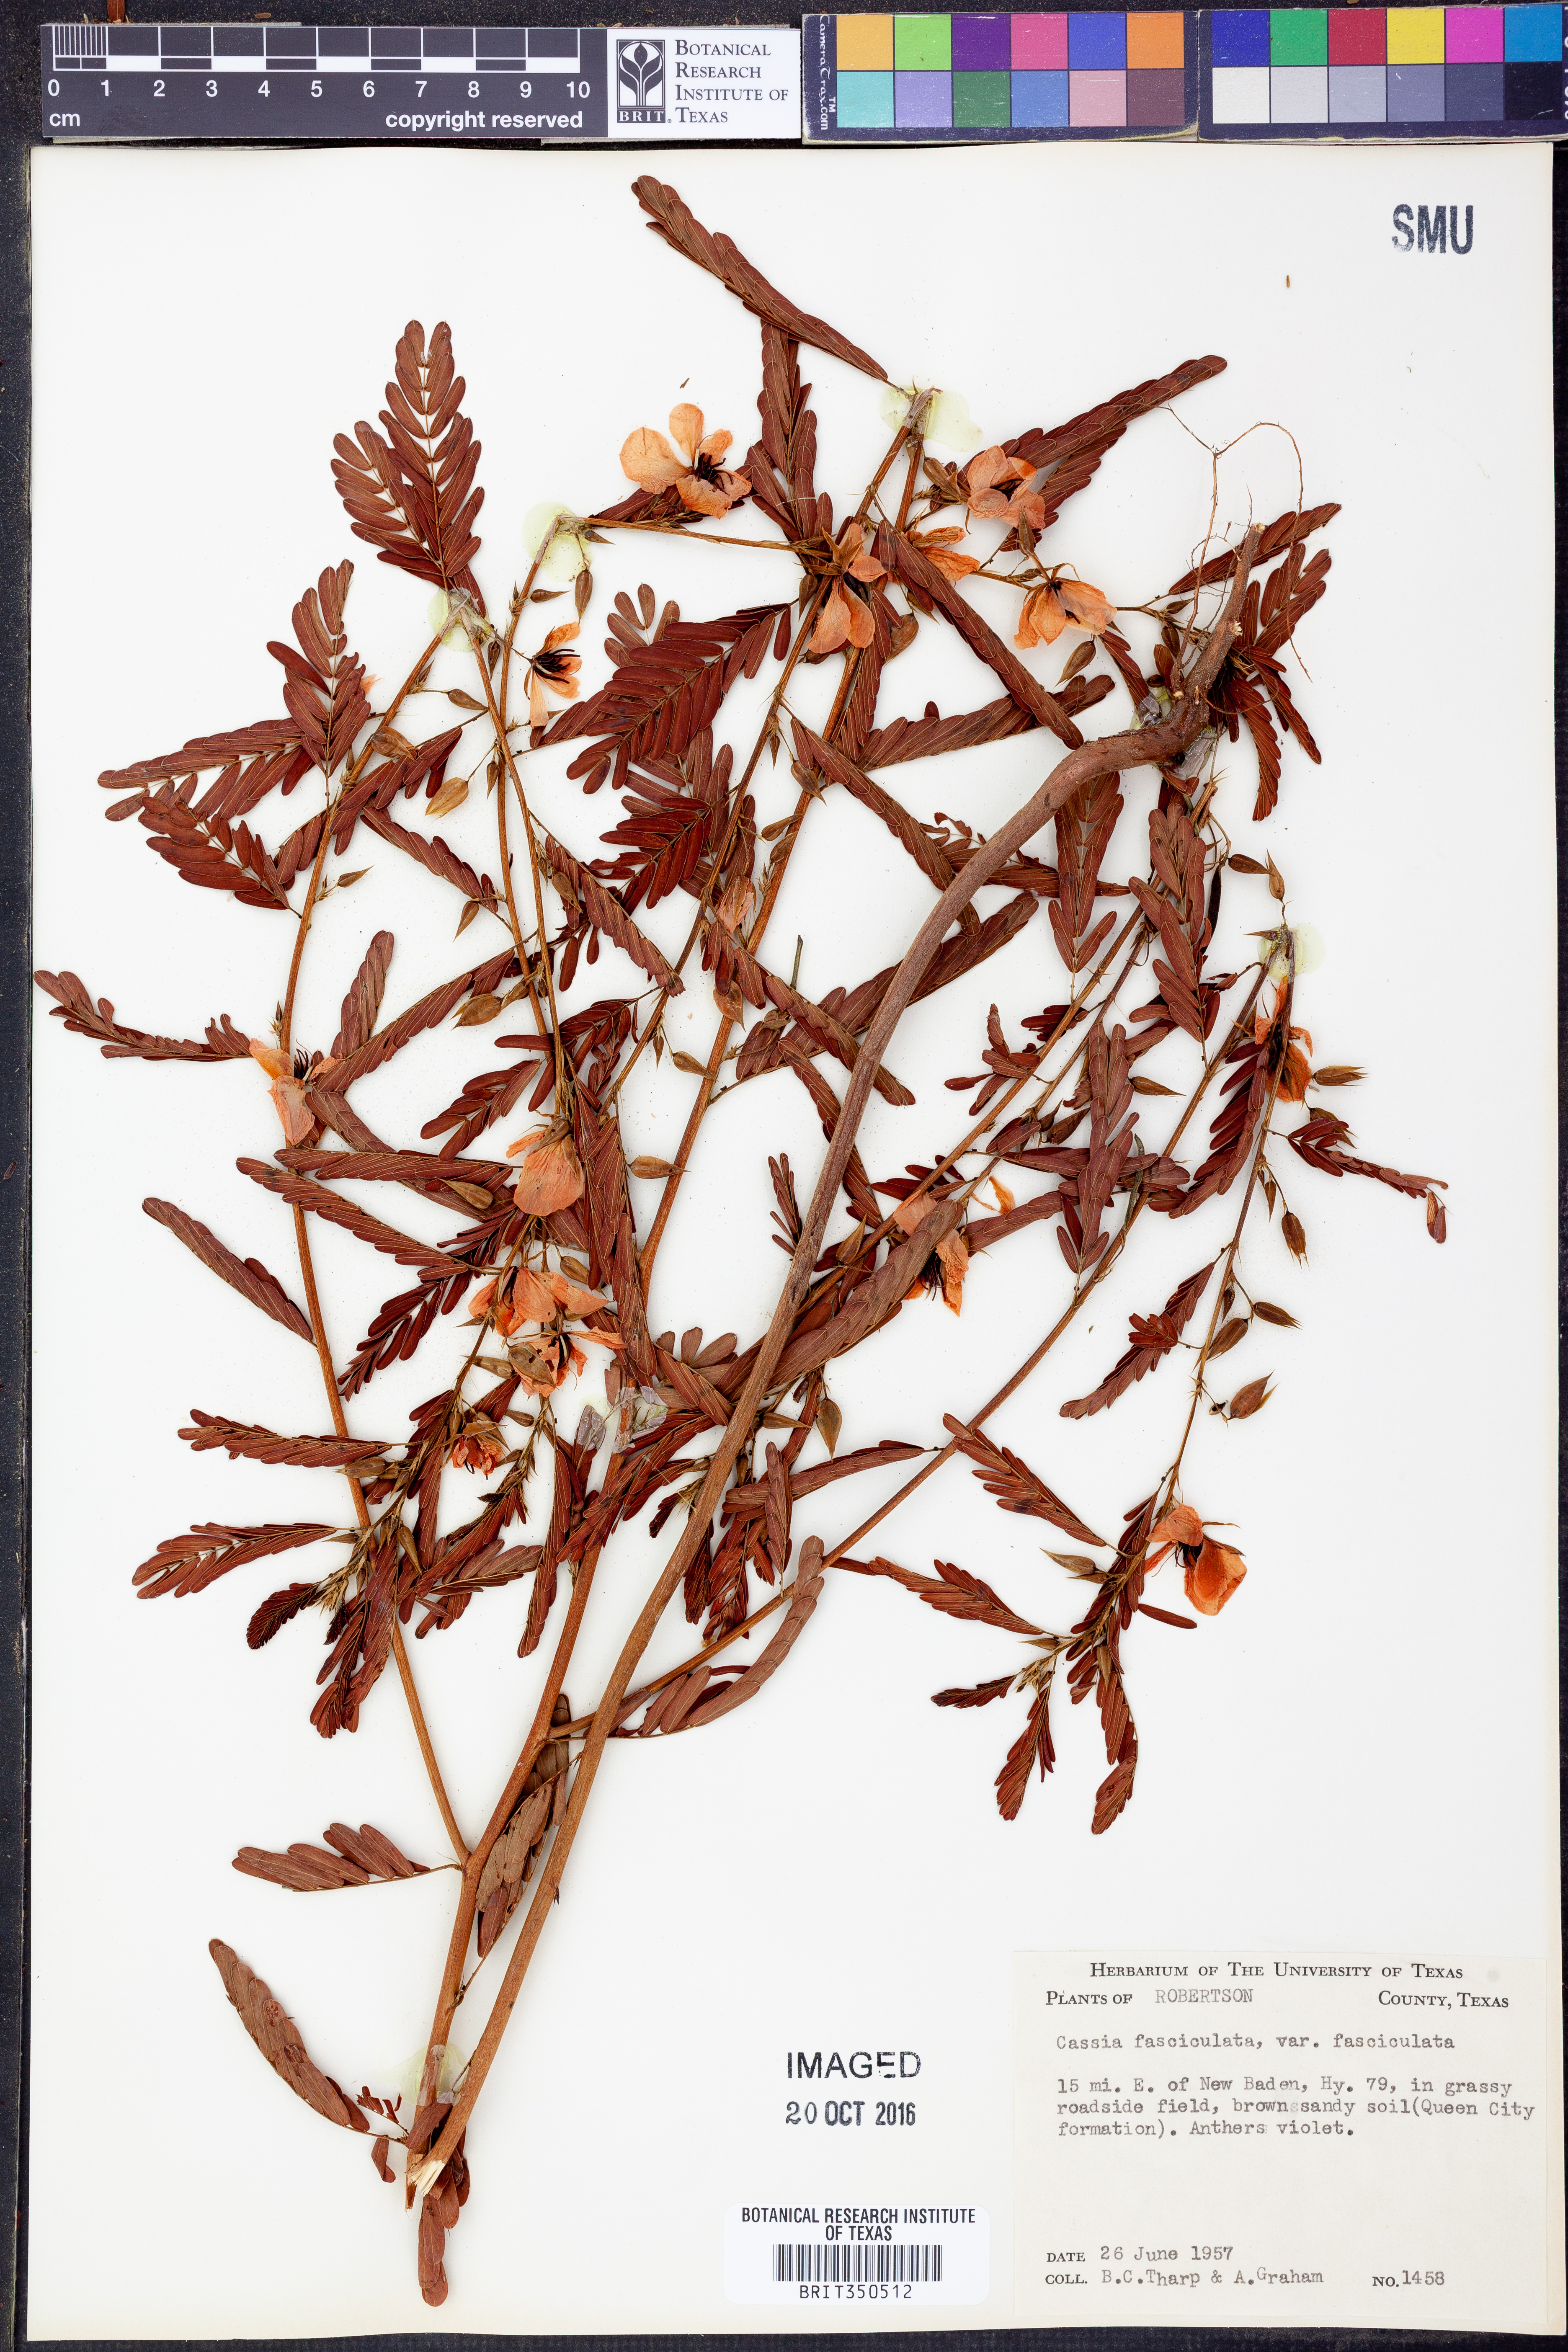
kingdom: Plantae
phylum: Tracheophyta
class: Magnoliopsida
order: Fabales
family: Fabaceae
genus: Chamaecrista
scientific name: Chamaecrista fasciculata
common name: Golden cassia
